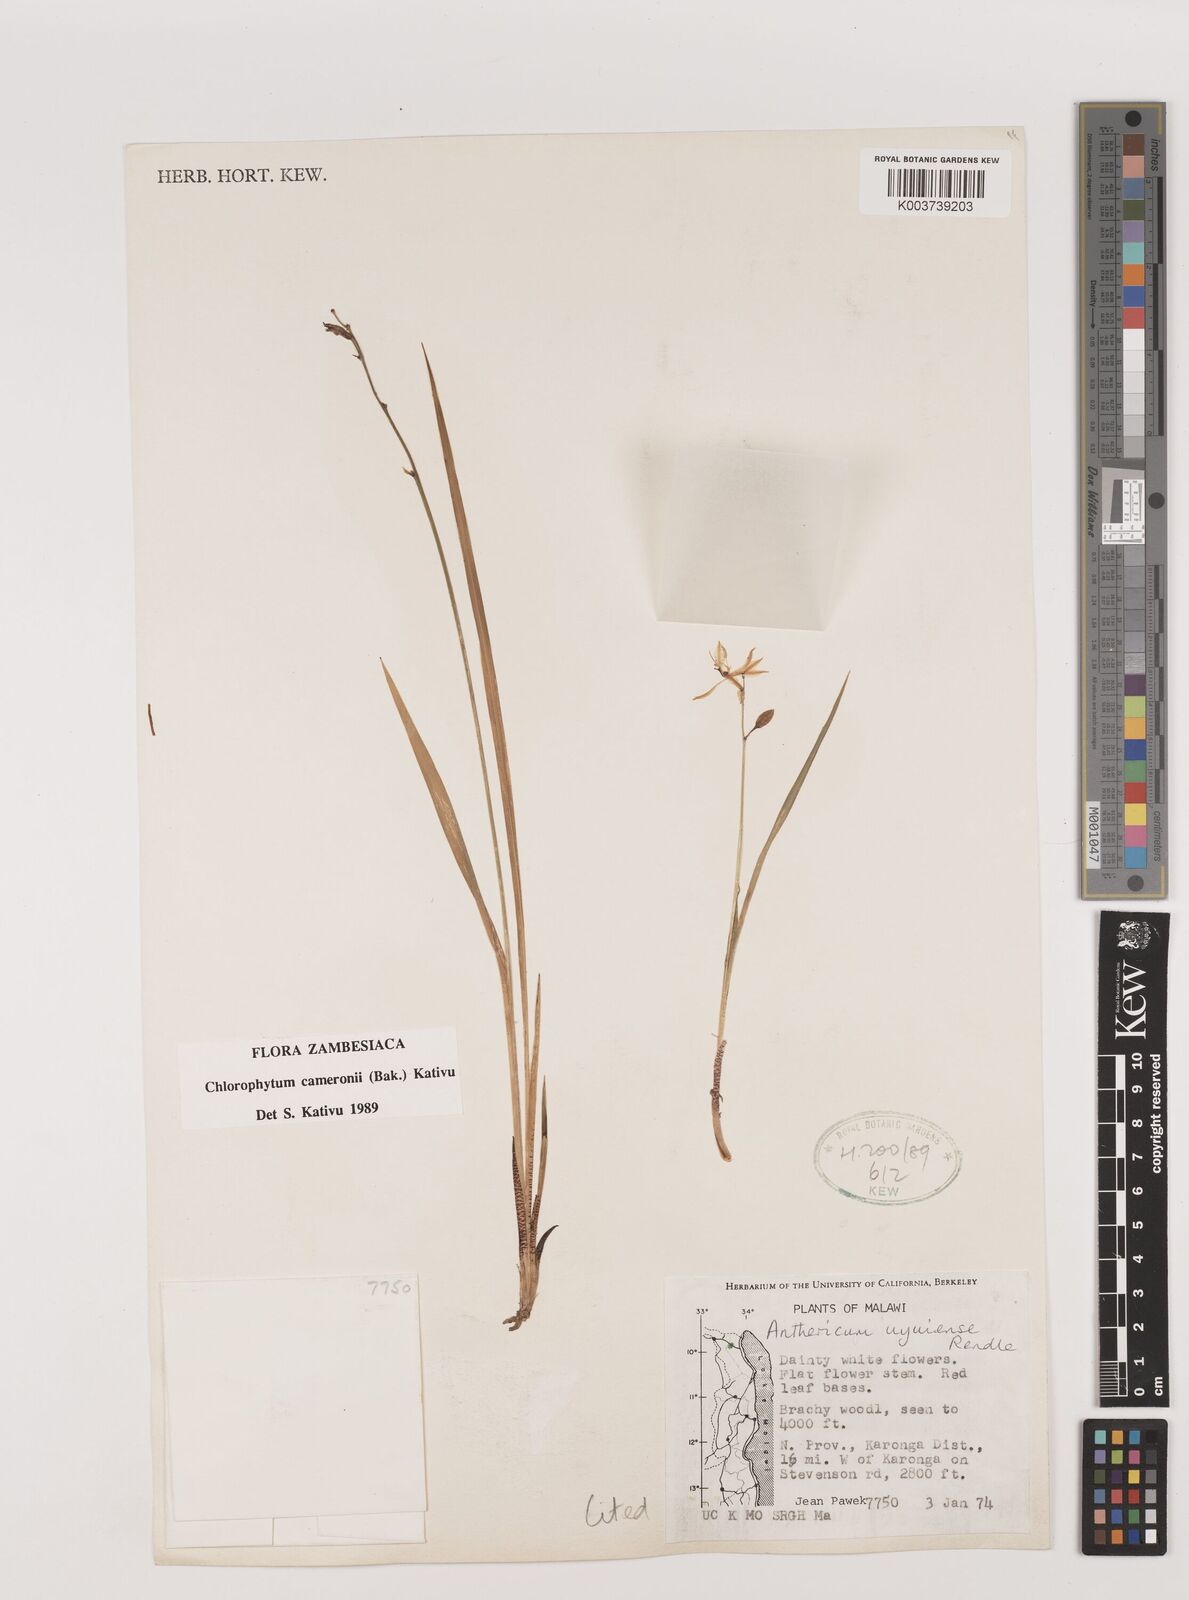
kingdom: Plantae
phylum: Tracheophyta
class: Liliopsida
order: Asparagales
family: Asparagaceae
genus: Chlorophytum
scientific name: Chlorophytum cameronii
